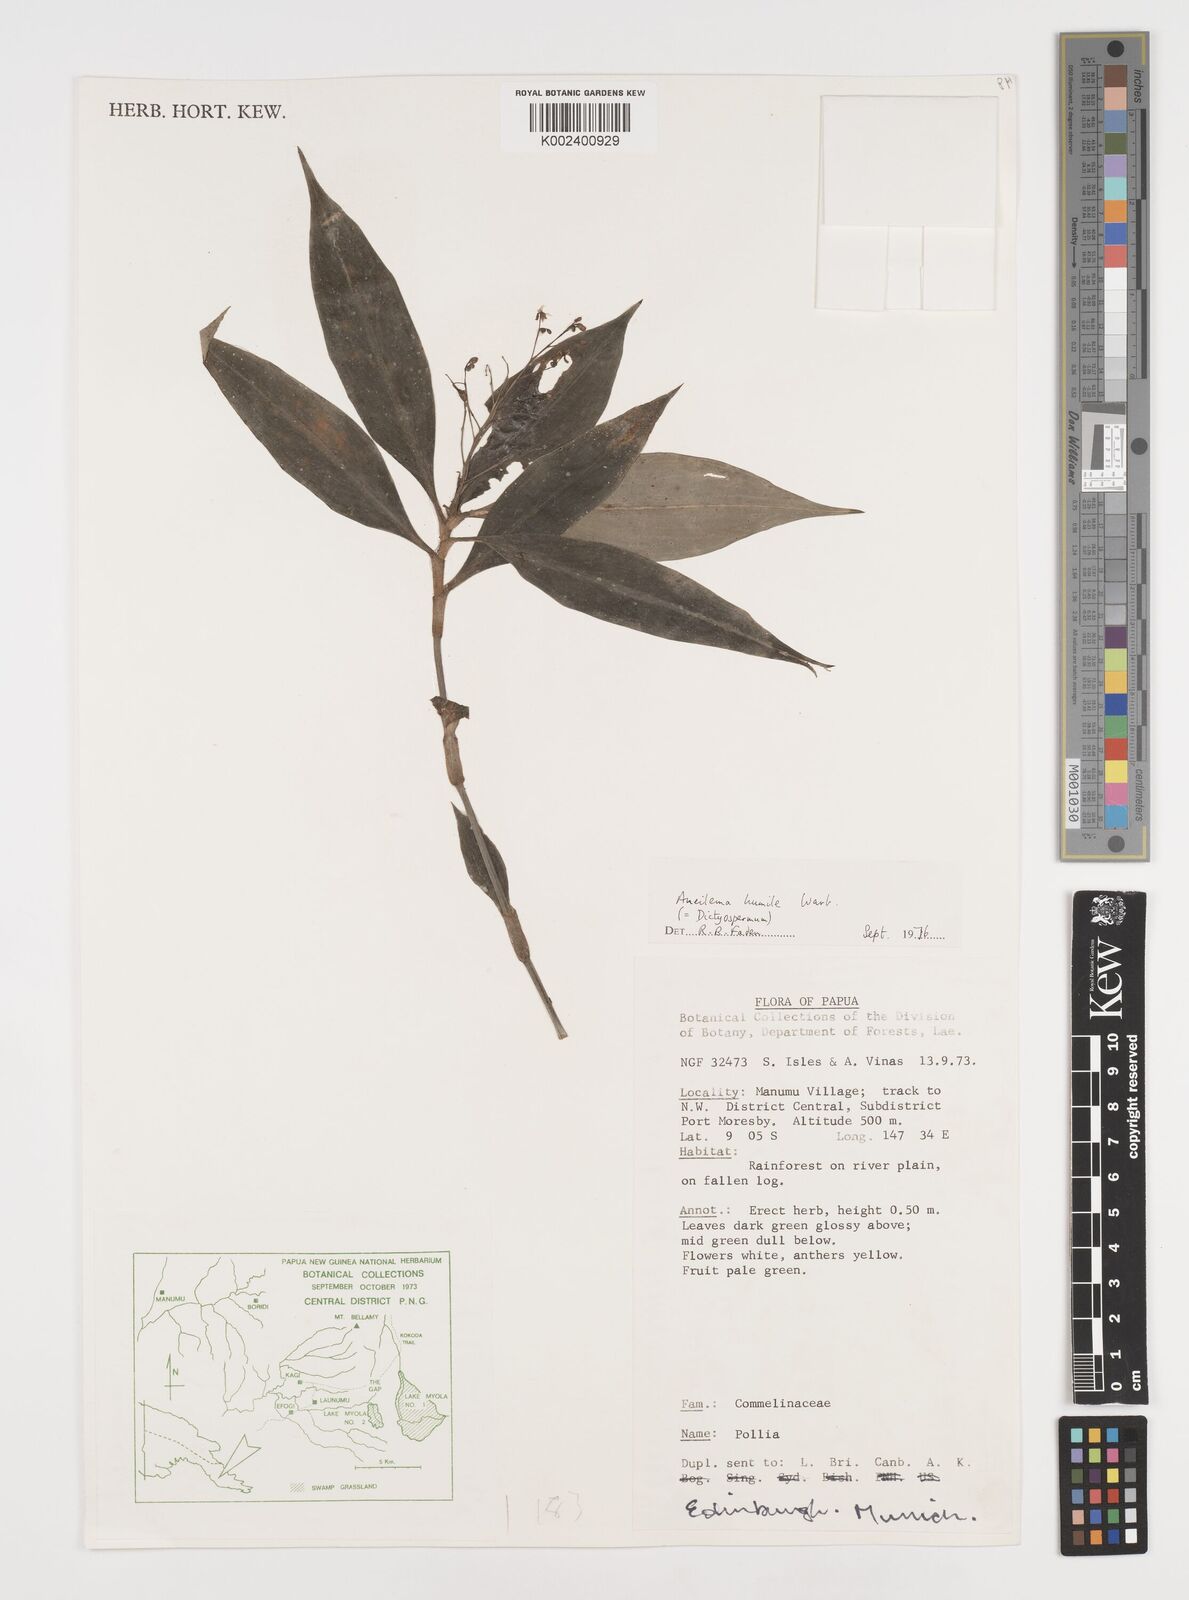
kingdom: Plantae
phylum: Tracheophyta
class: Liliopsida
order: Commelinales
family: Commelinaceae
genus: Dictyospermum
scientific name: Dictyospermum humile
